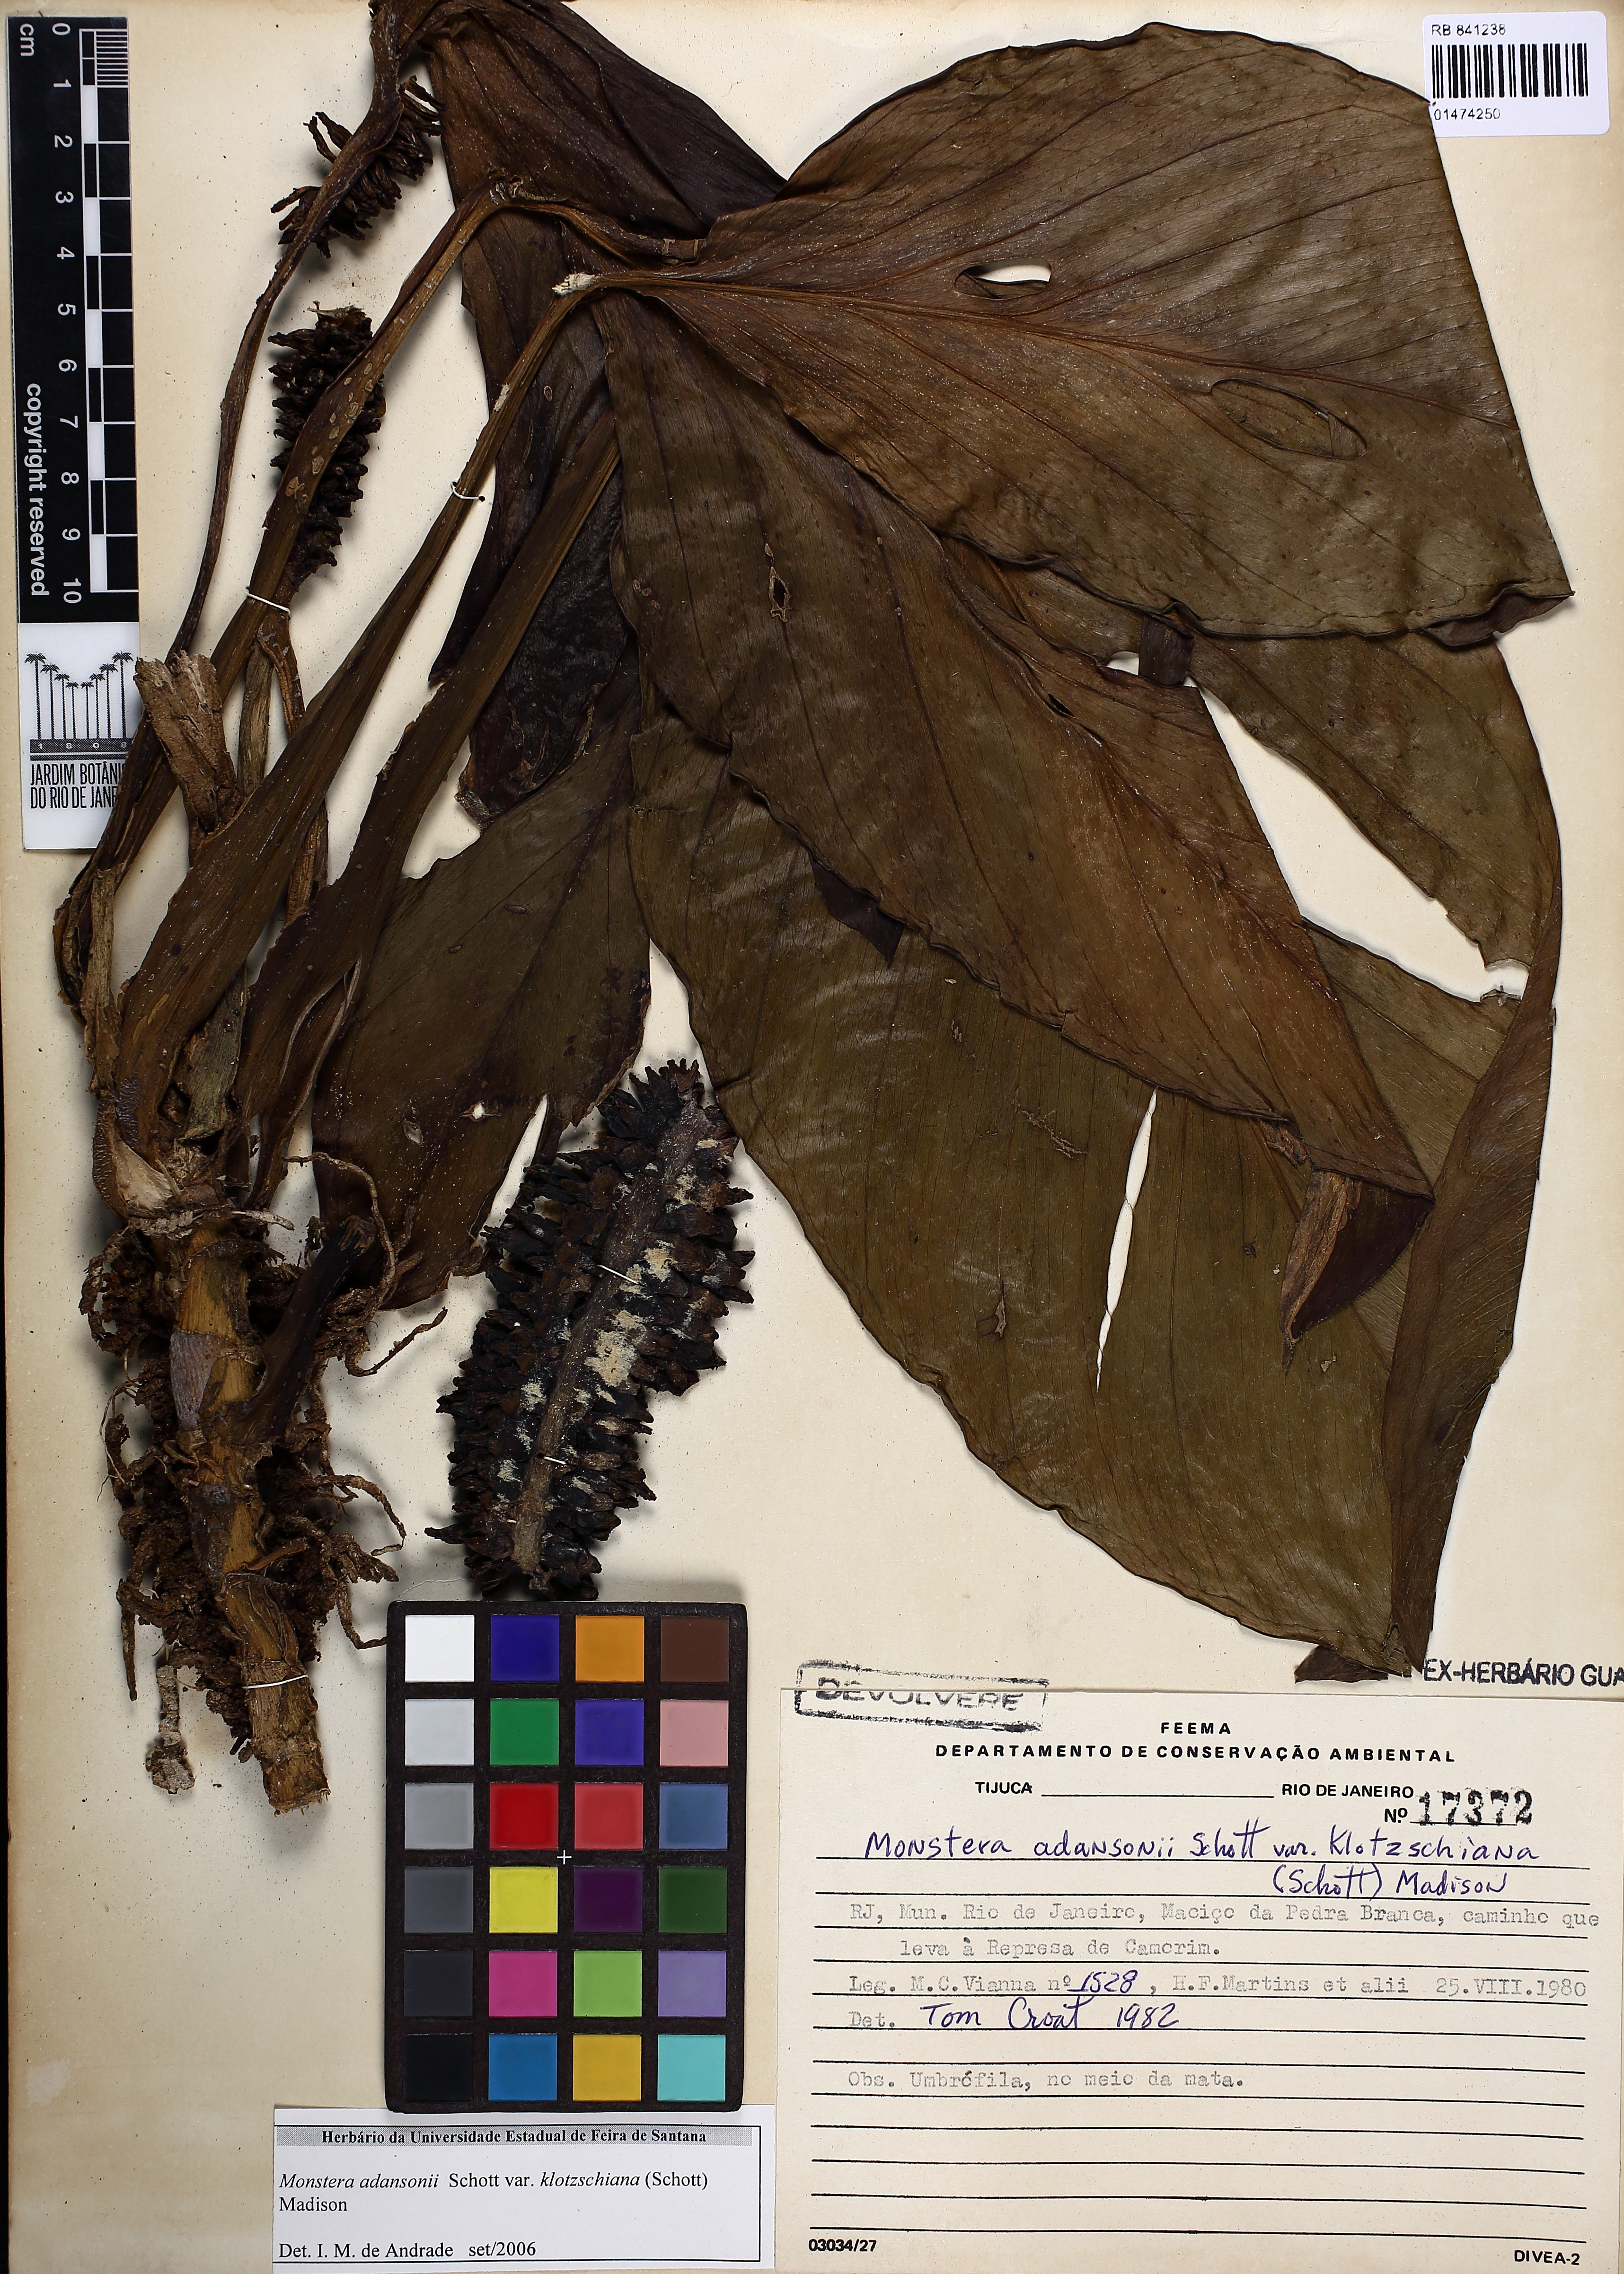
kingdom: Plantae
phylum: Tracheophyta
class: Liliopsida
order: Alismatales
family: Araceae
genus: Monstera
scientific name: Monstera adansonii
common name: Tarovine
